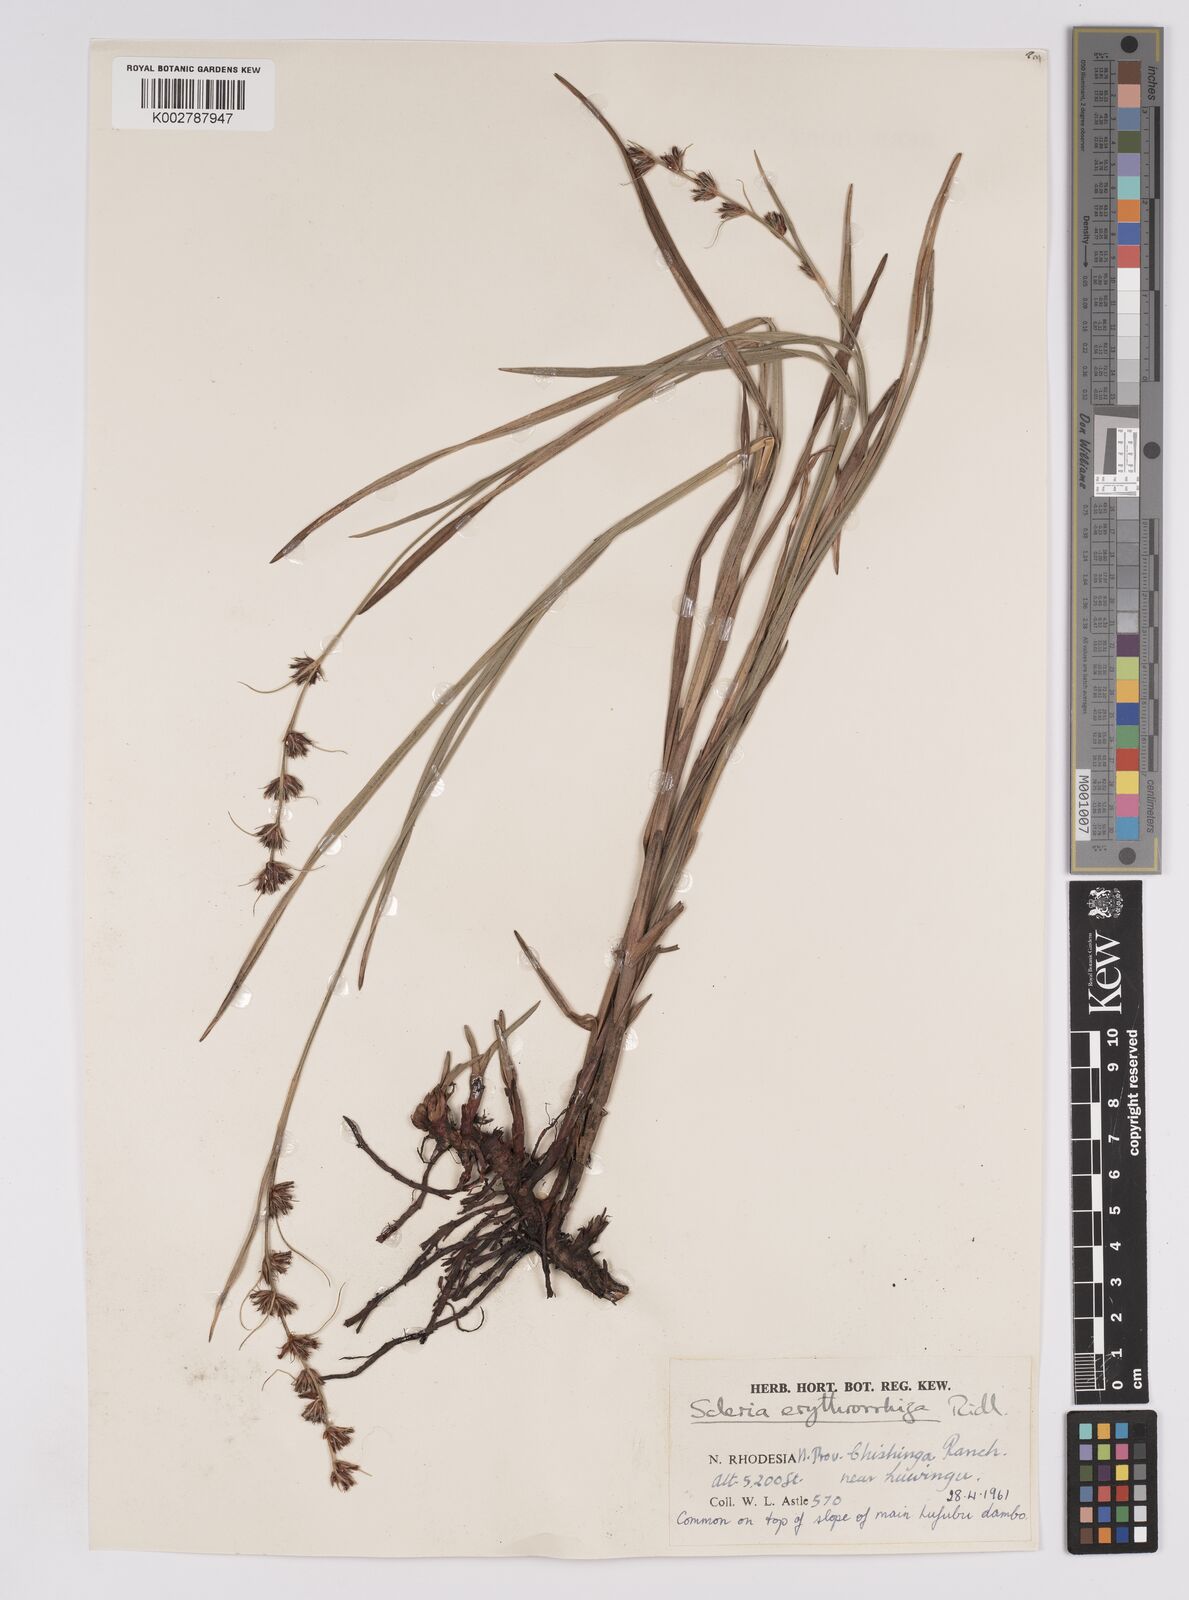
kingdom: Plantae
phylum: Tracheophyta
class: Liliopsida
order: Poales
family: Cyperaceae
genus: Scleria
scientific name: Scleria erythrorrhiza
